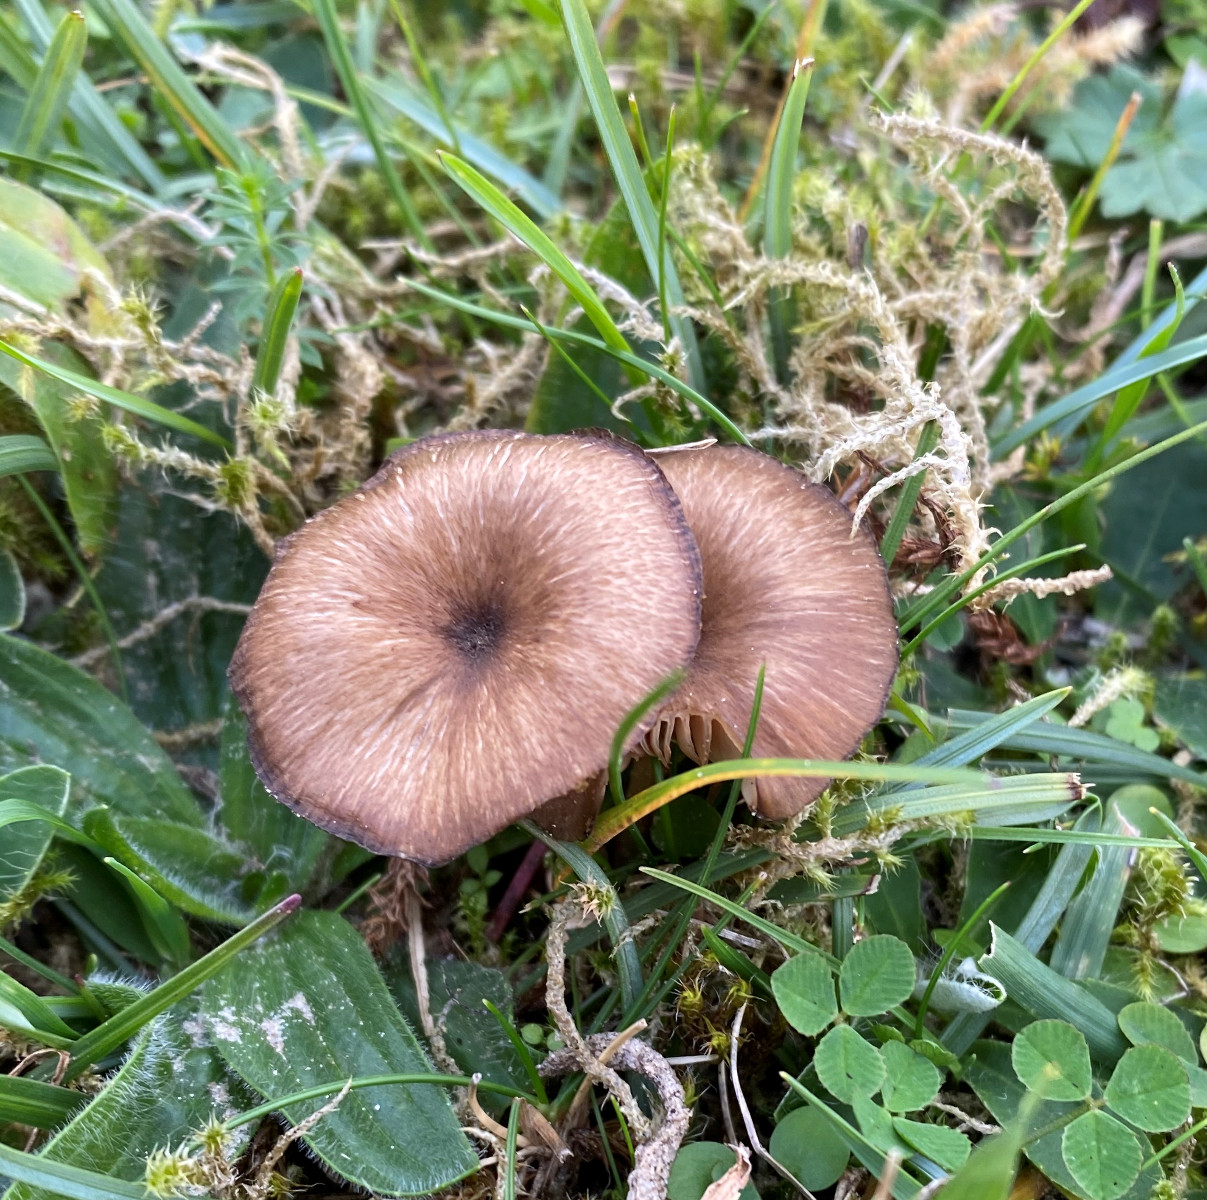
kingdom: Fungi
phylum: Basidiomycota
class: Agaricomycetes
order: Agaricales
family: Entolomataceae
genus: Entoloma
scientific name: Entoloma
